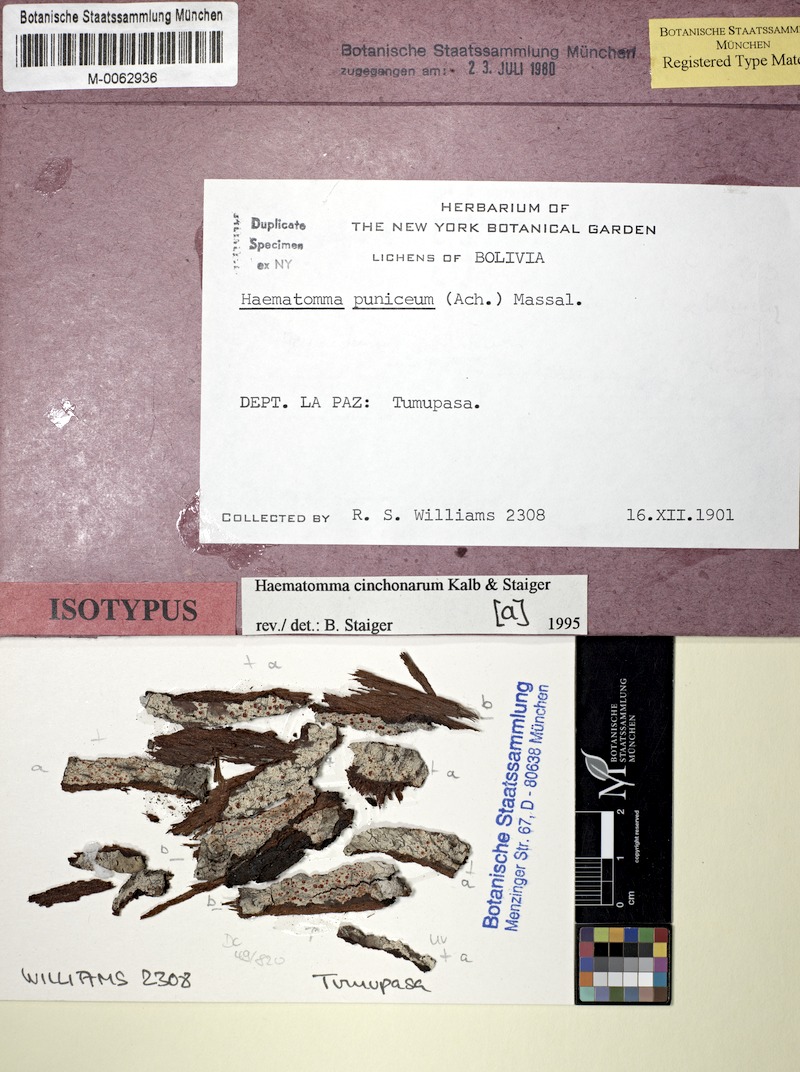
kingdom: Fungi
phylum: Ascomycota
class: Lecanoromycetes
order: Lecanorales
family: Haematommataceae
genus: Haematomma
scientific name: Haematomma
